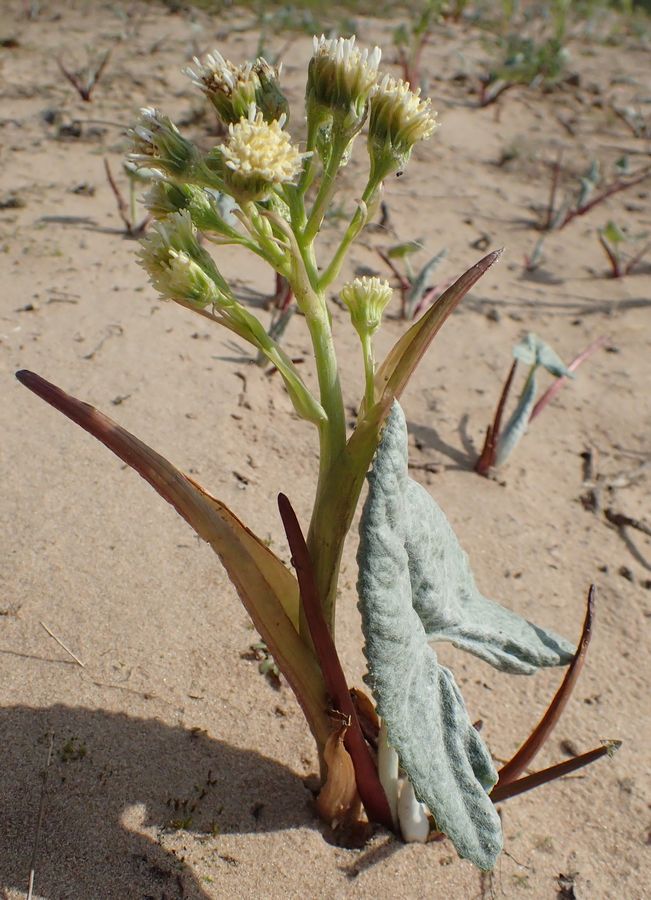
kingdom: Plantae
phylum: Tracheophyta
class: Magnoliopsida
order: Asterales
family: Asteraceae
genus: Petasites
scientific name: Petasites spurius
